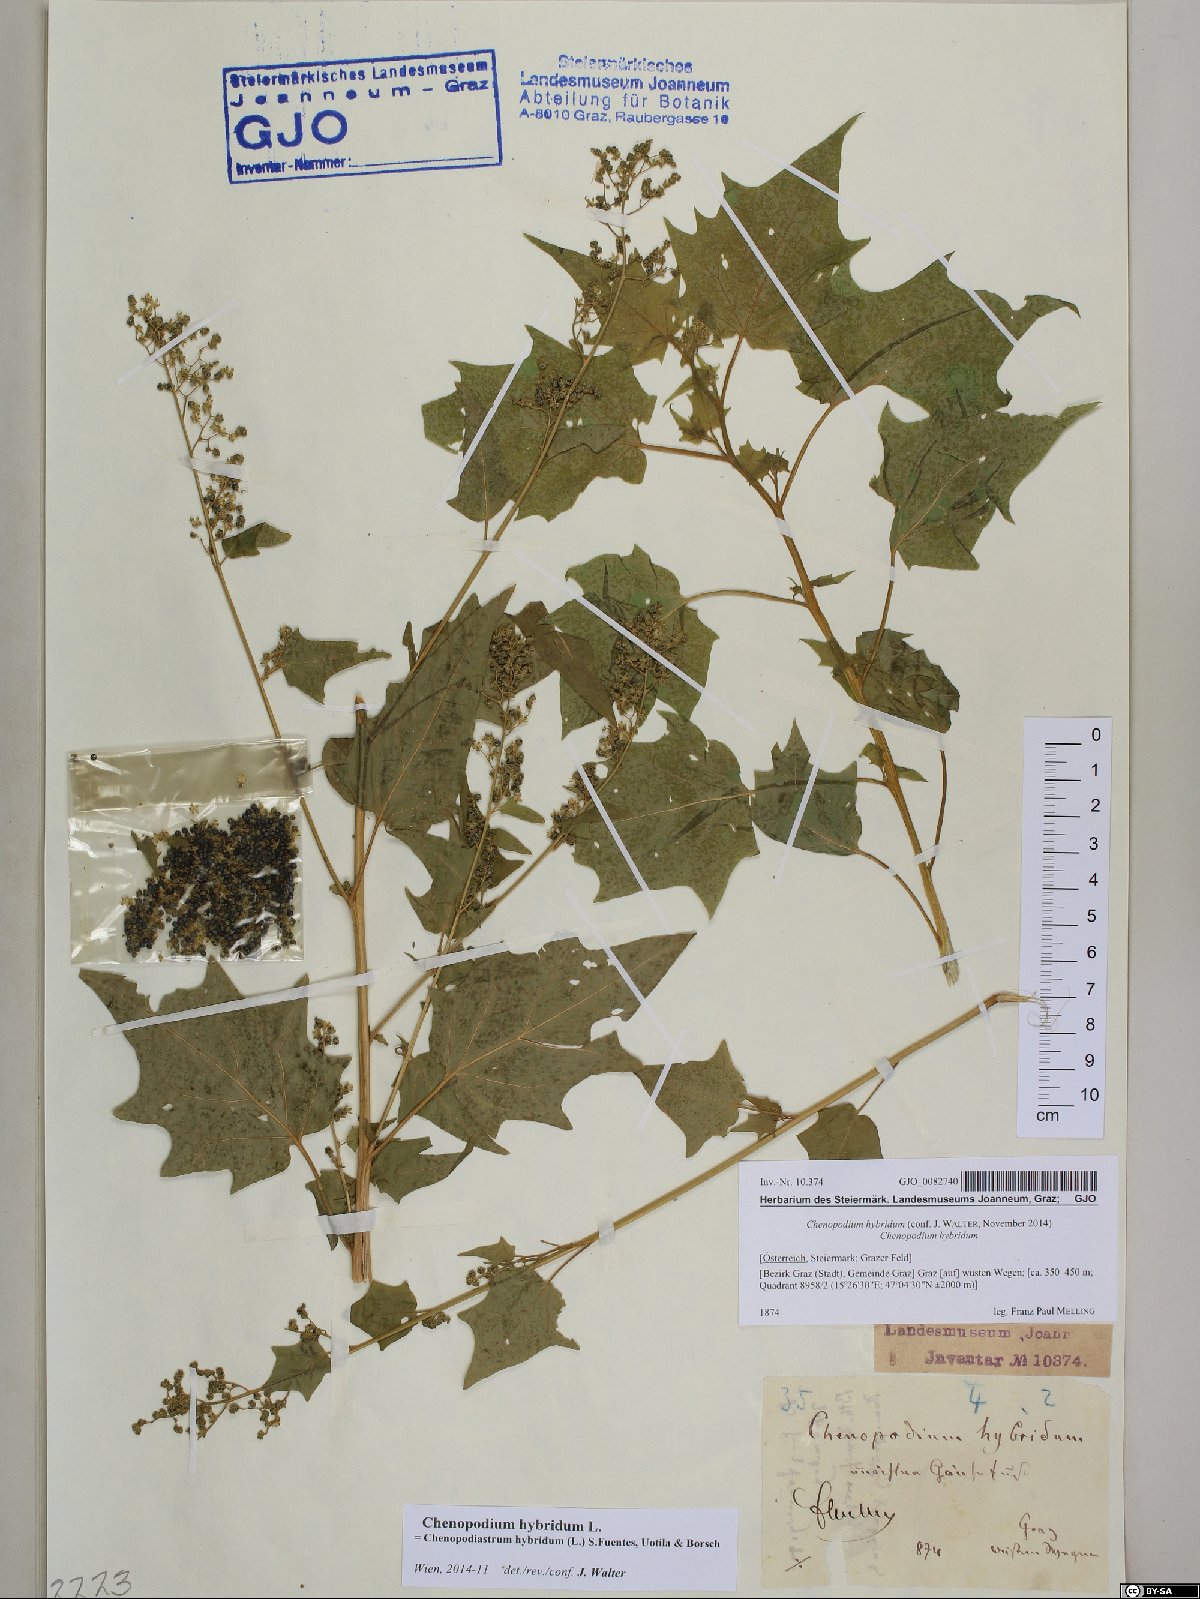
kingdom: Plantae
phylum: Tracheophyta
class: Magnoliopsida
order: Caryophyllales
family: Amaranthaceae
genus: Chenopodiastrum
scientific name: Chenopodiastrum hybridum
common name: Mapleleaf goosefoot
